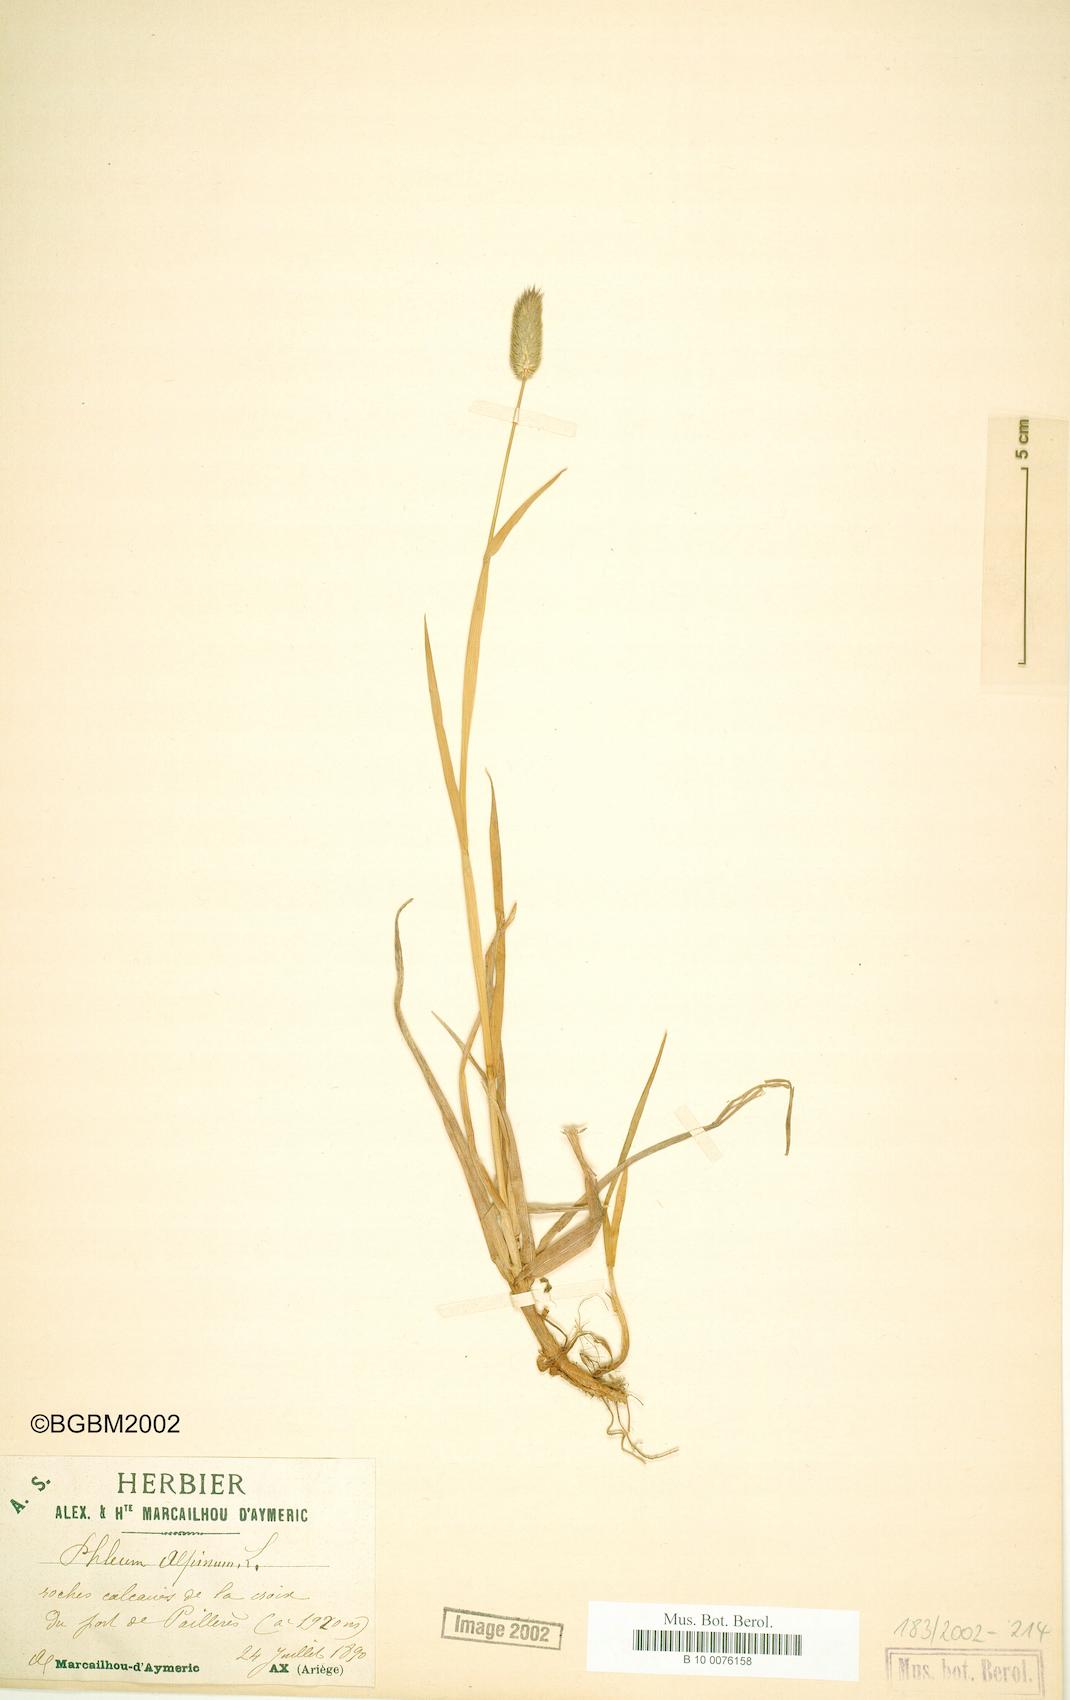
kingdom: Plantae
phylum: Tracheophyta
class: Liliopsida
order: Poales
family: Poaceae
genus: Phleum
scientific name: Phleum alpinum
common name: Alpine cat's-tail
